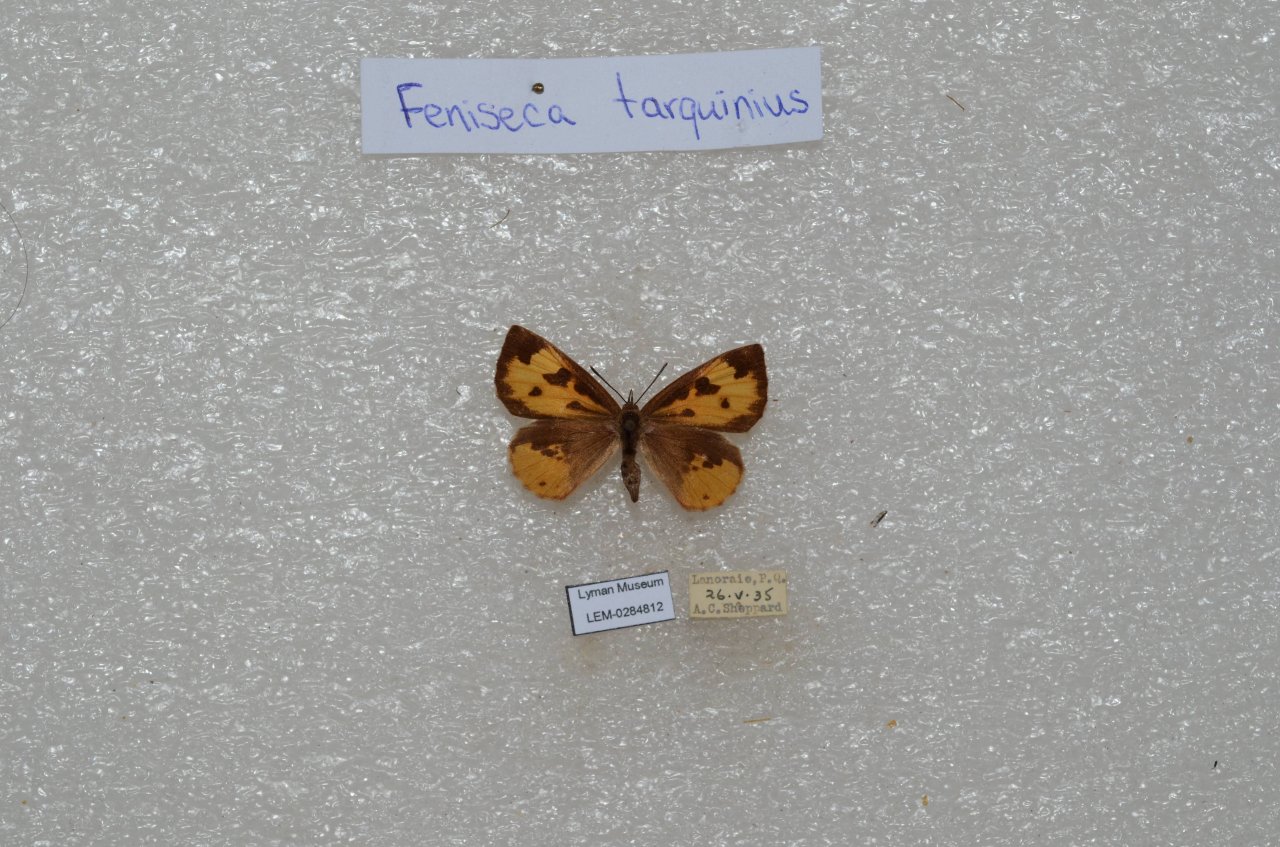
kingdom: Animalia
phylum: Arthropoda
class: Insecta
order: Lepidoptera
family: Lycaenidae
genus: Feniseca
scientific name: Feniseca tarquinius
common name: Harvester
